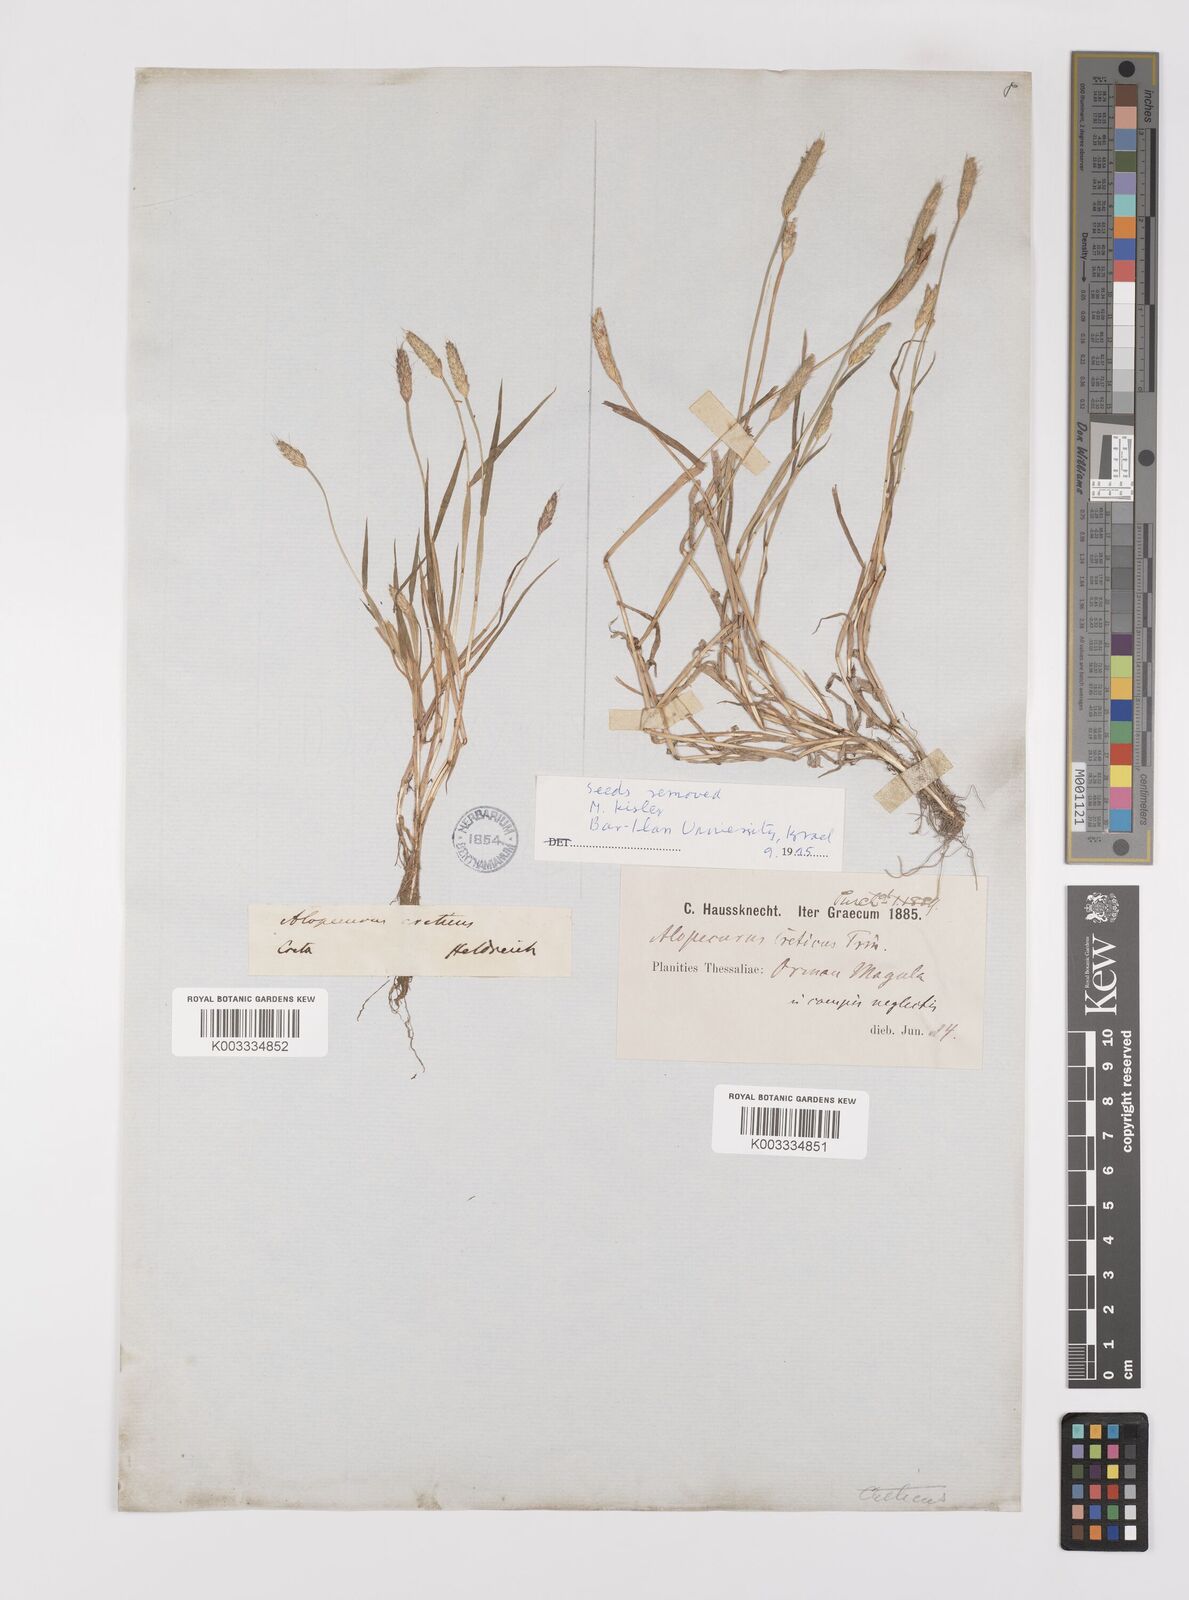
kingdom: Plantae
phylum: Tracheophyta
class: Liliopsida
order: Poales
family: Poaceae
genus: Alopecurus
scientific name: Alopecurus creticus
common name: Cretan meadow foxtail
